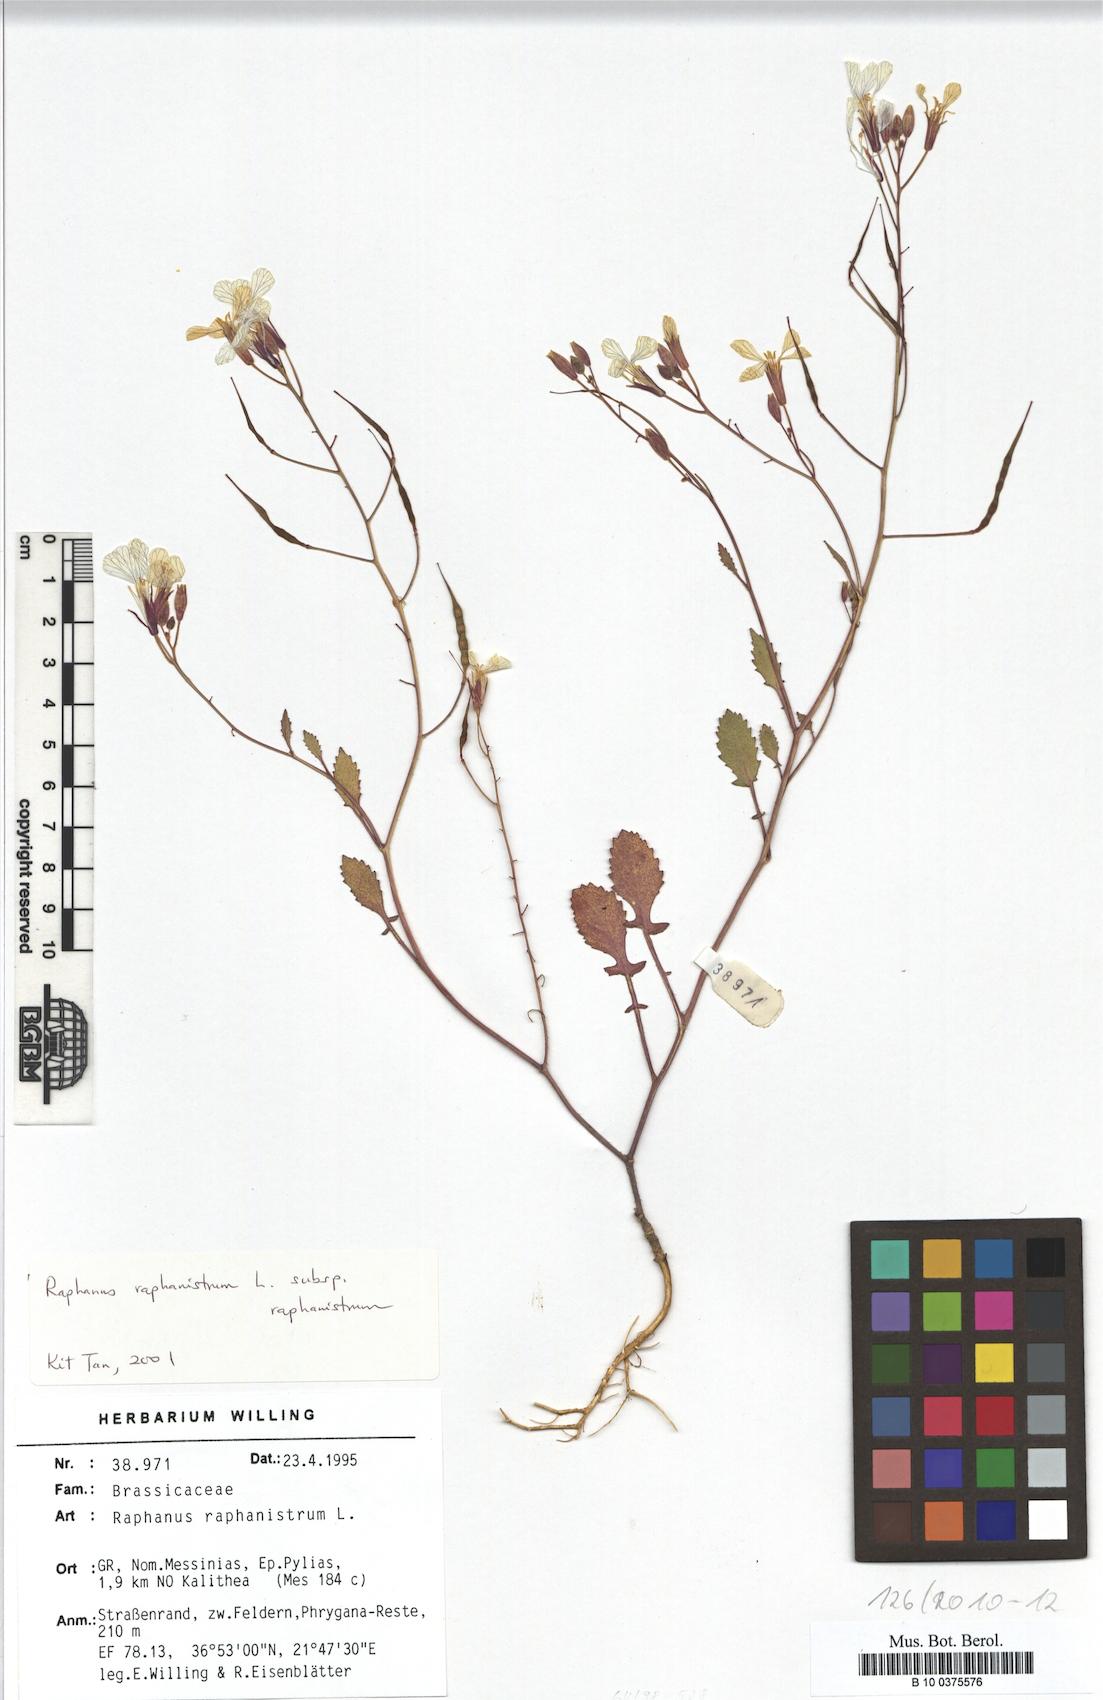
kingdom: Plantae
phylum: Tracheophyta
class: Magnoliopsida
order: Brassicales
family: Brassicaceae
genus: Raphanus
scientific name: Raphanus raphanistrum
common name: Wild radish
